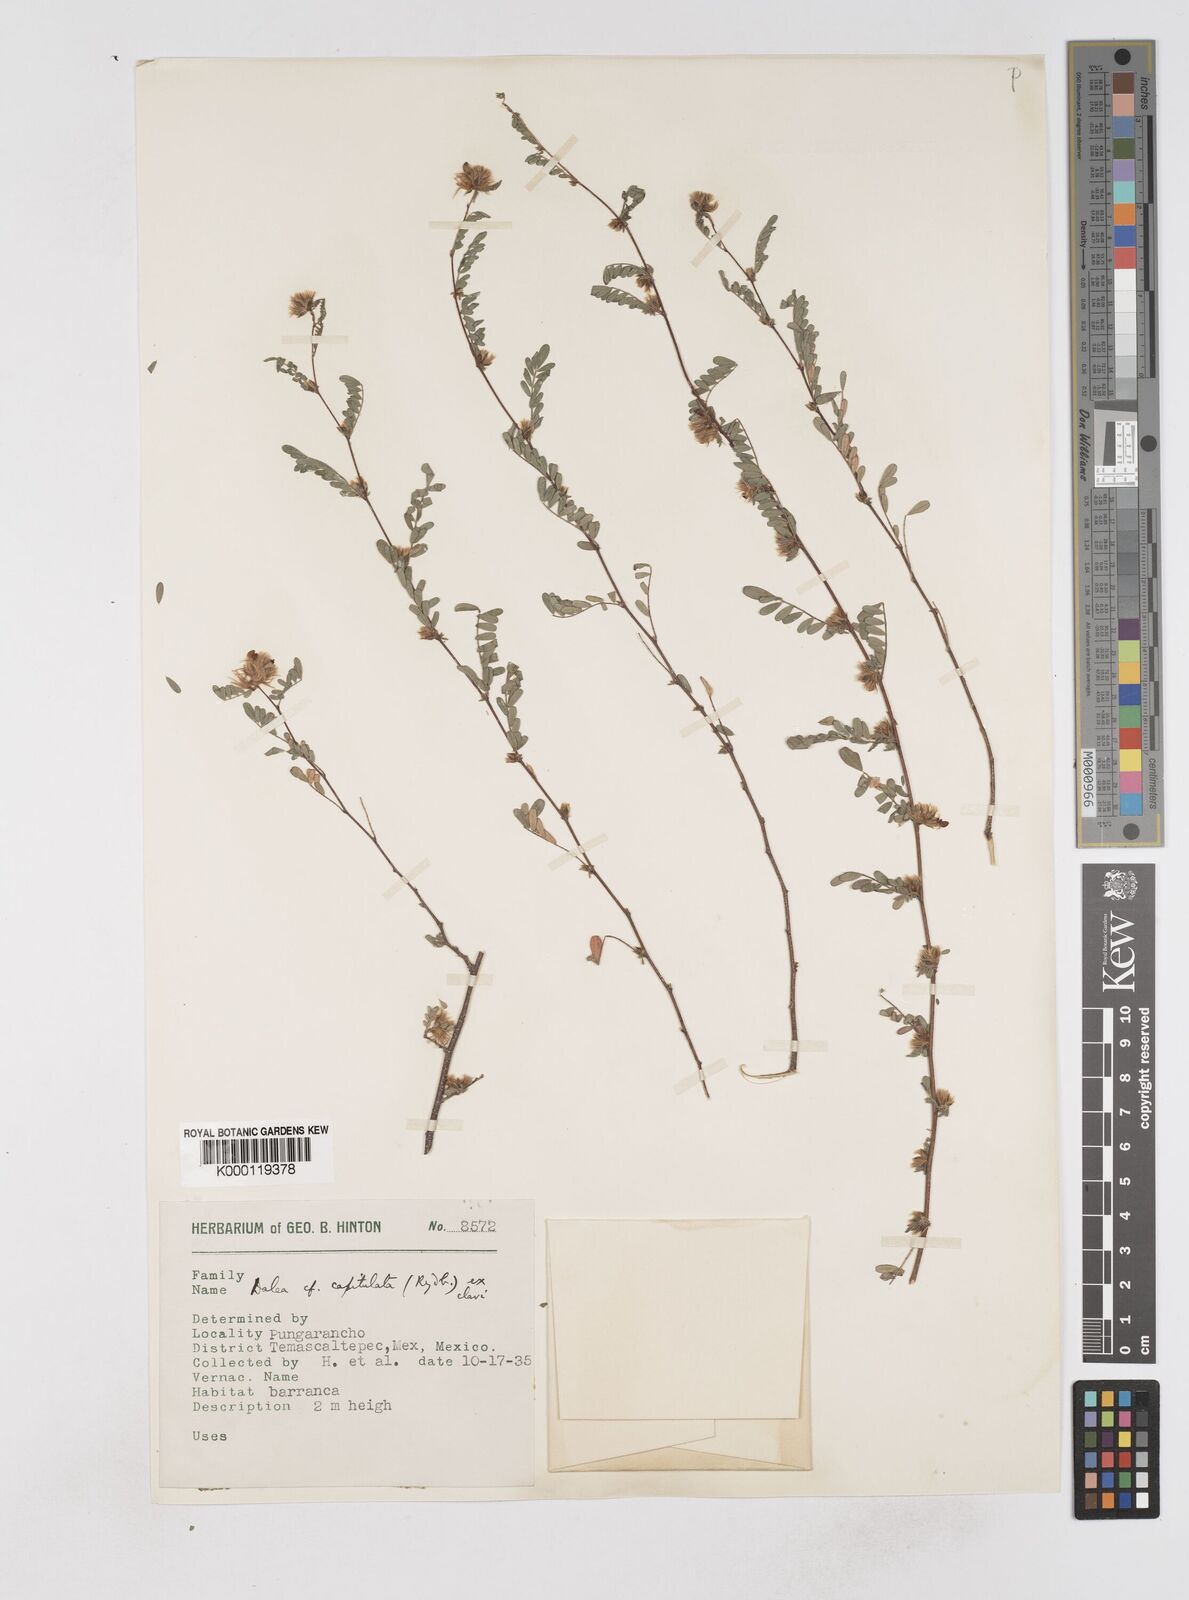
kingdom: Plantae
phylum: Tracheophyta
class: Magnoliopsida
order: Fabales
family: Fabaceae
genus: Dalea
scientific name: Dalea carthagenensis
